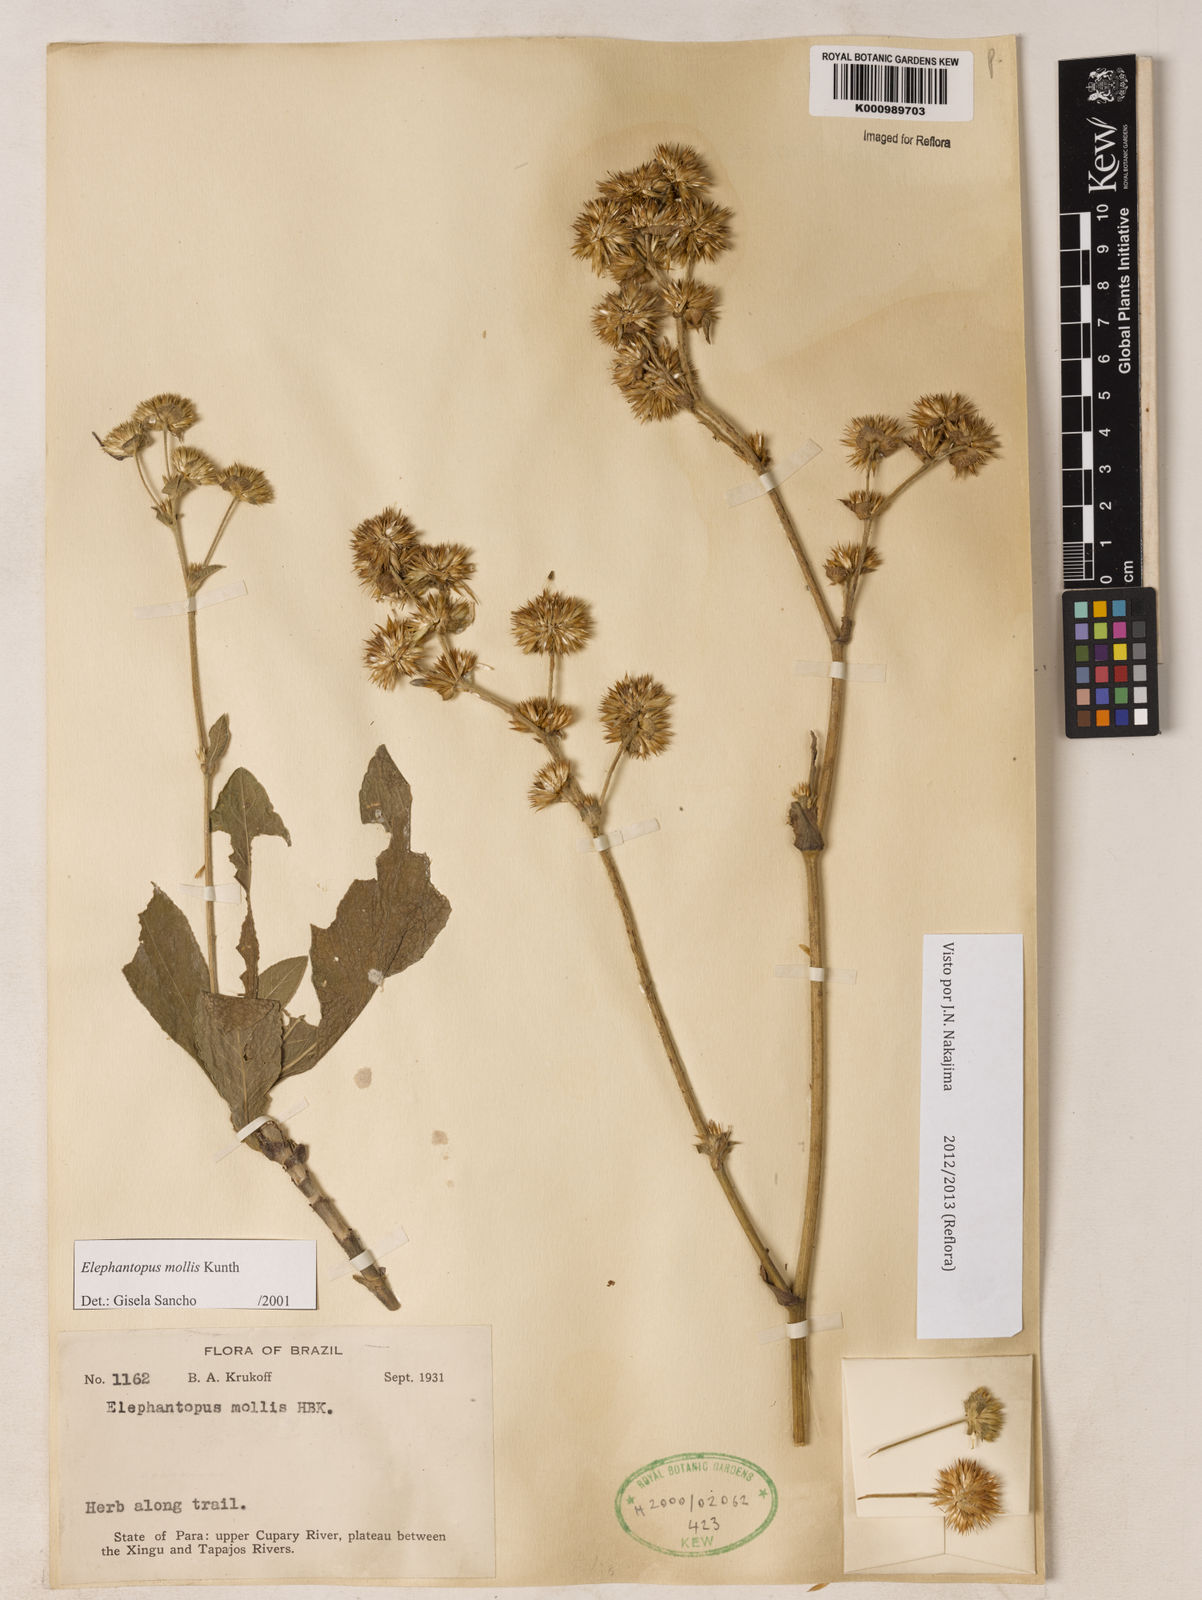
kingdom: Plantae
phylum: Tracheophyta
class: Magnoliopsida
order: Asterales
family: Asteraceae
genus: Elephantopus
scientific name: Elephantopus mollis
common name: Soft elephantsfoot
